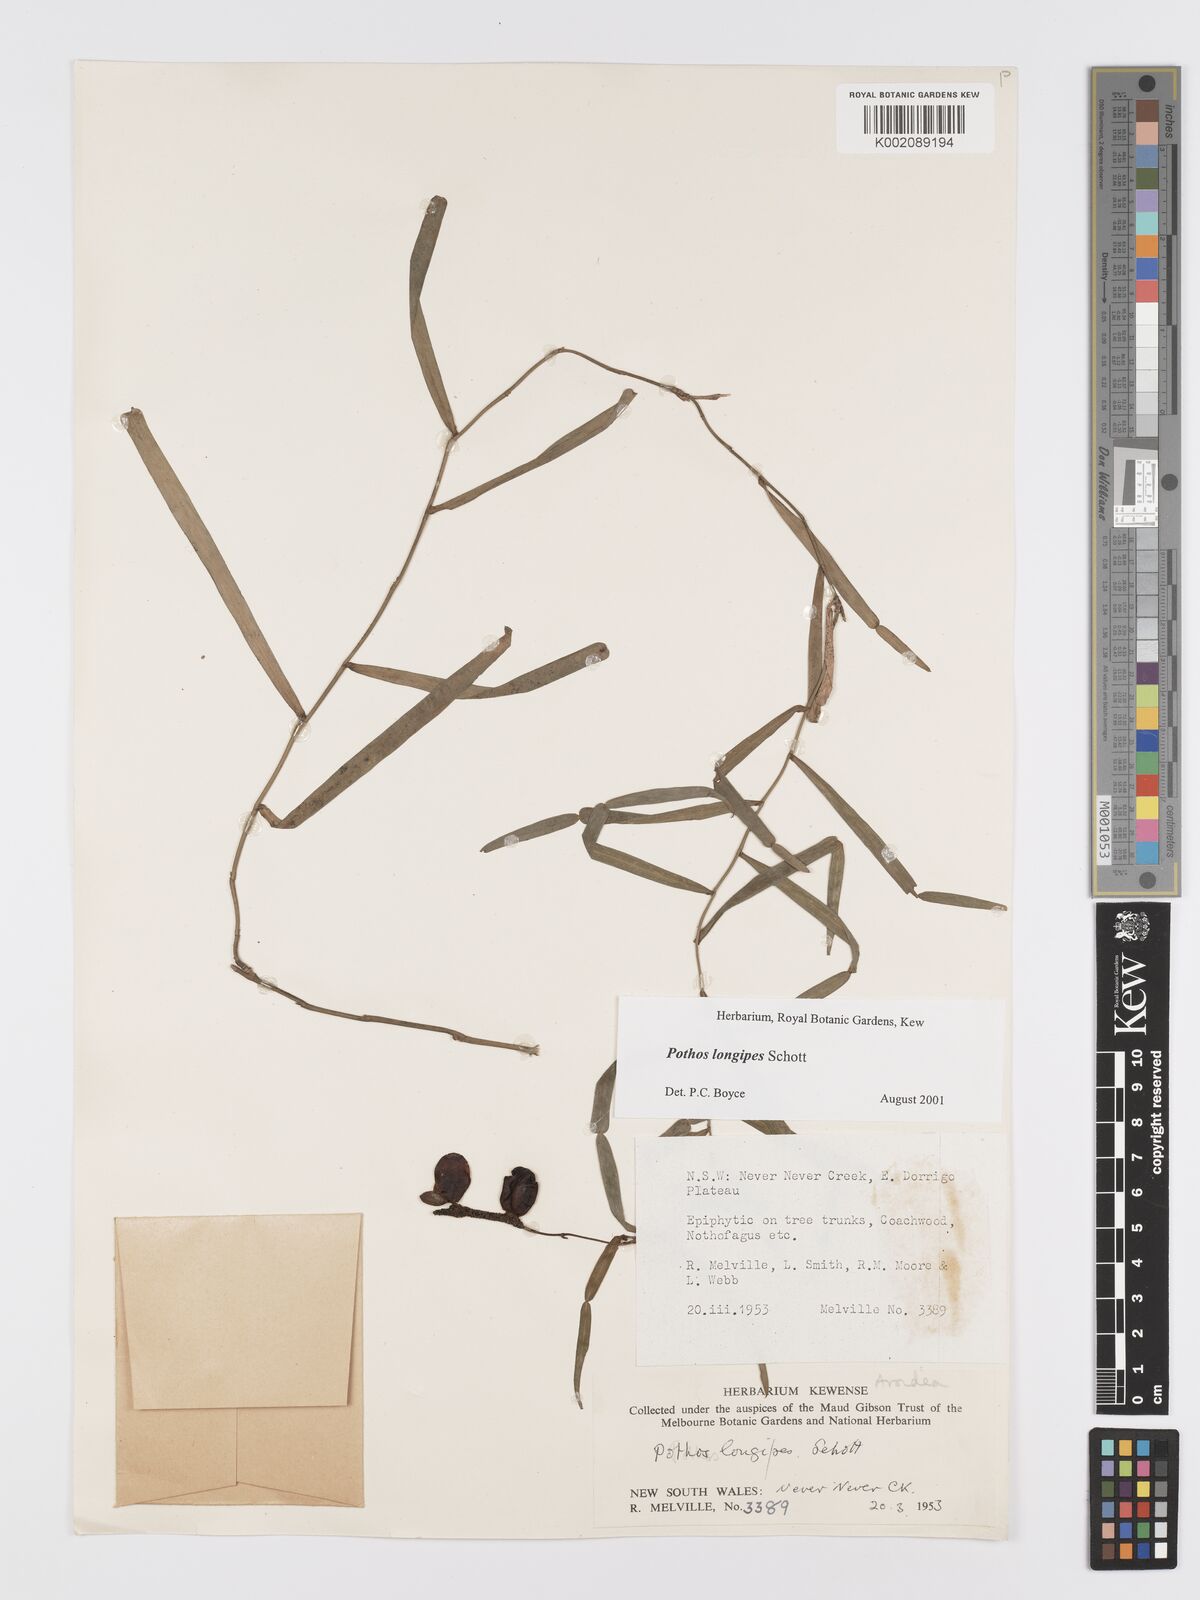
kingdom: Plantae
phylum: Tracheophyta
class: Liliopsida
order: Alismatales
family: Araceae
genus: Pothos
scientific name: Pothos longipes
